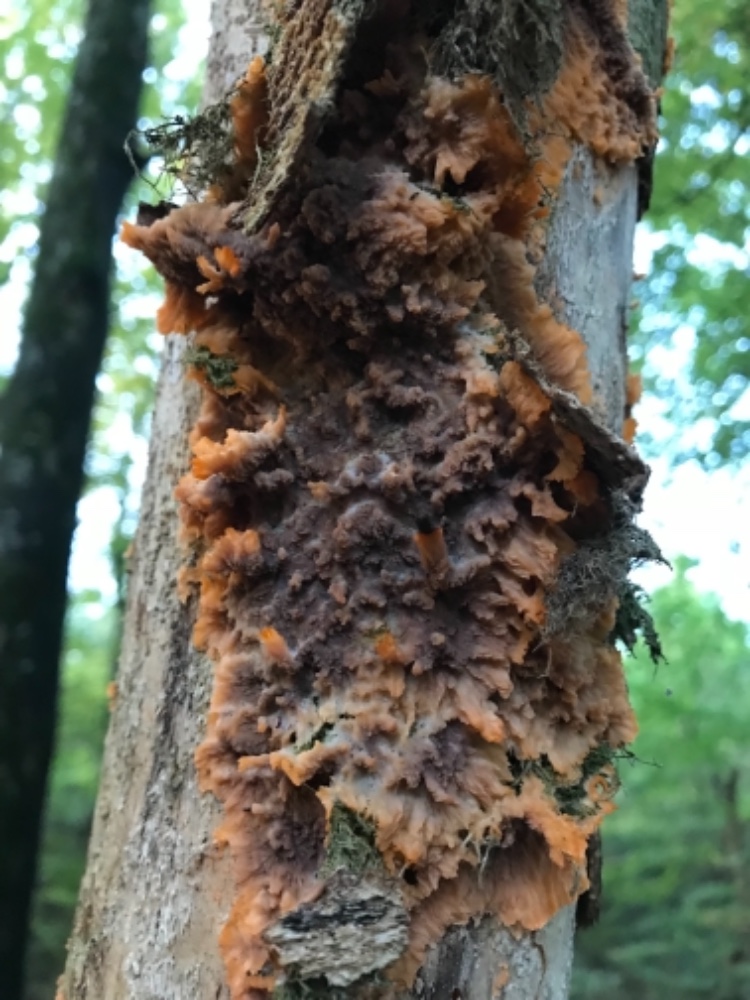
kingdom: Fungi
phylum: Basidiomycota
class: Agaricomycetes
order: Polyporales
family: Meruliaceae
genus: Phlebia
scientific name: Phlebia radiata
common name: stråle-åresvamp
